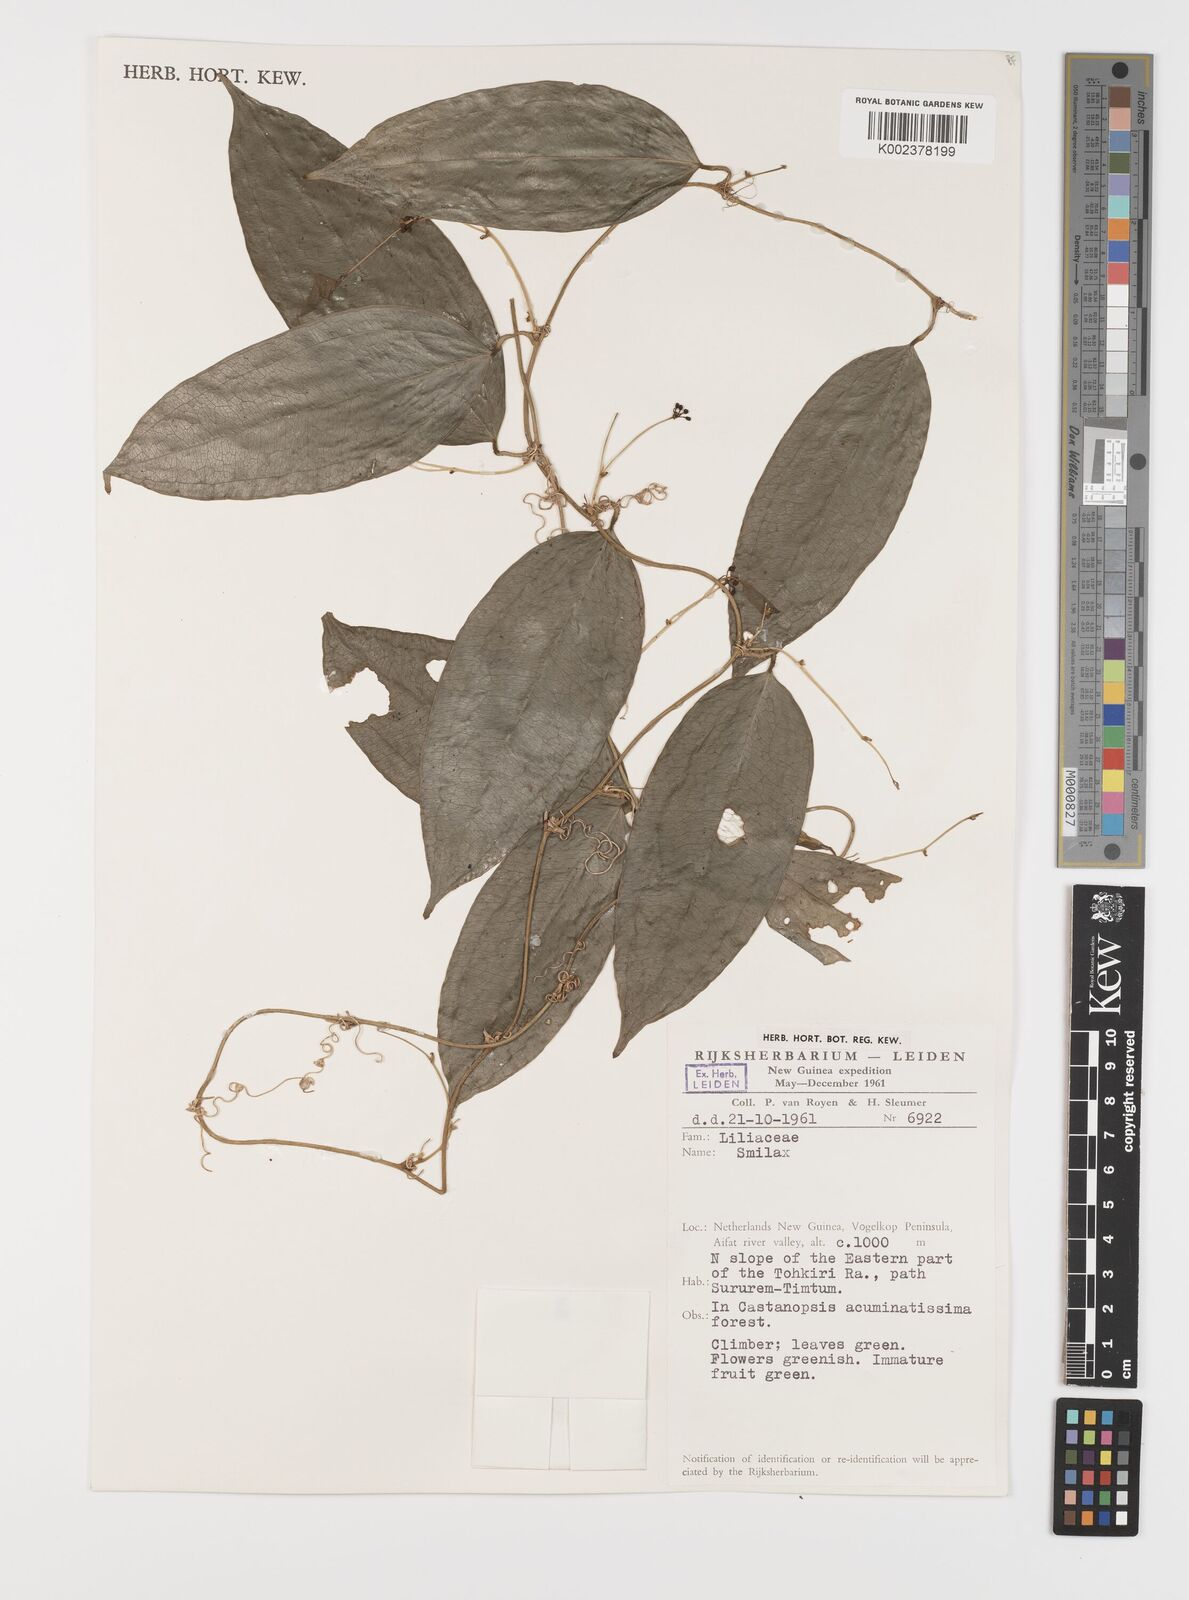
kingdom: Plantae
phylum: Tracheophyta
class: Liliopsida
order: Liliales
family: Smilacaceae
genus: Smilax
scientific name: Smilax
